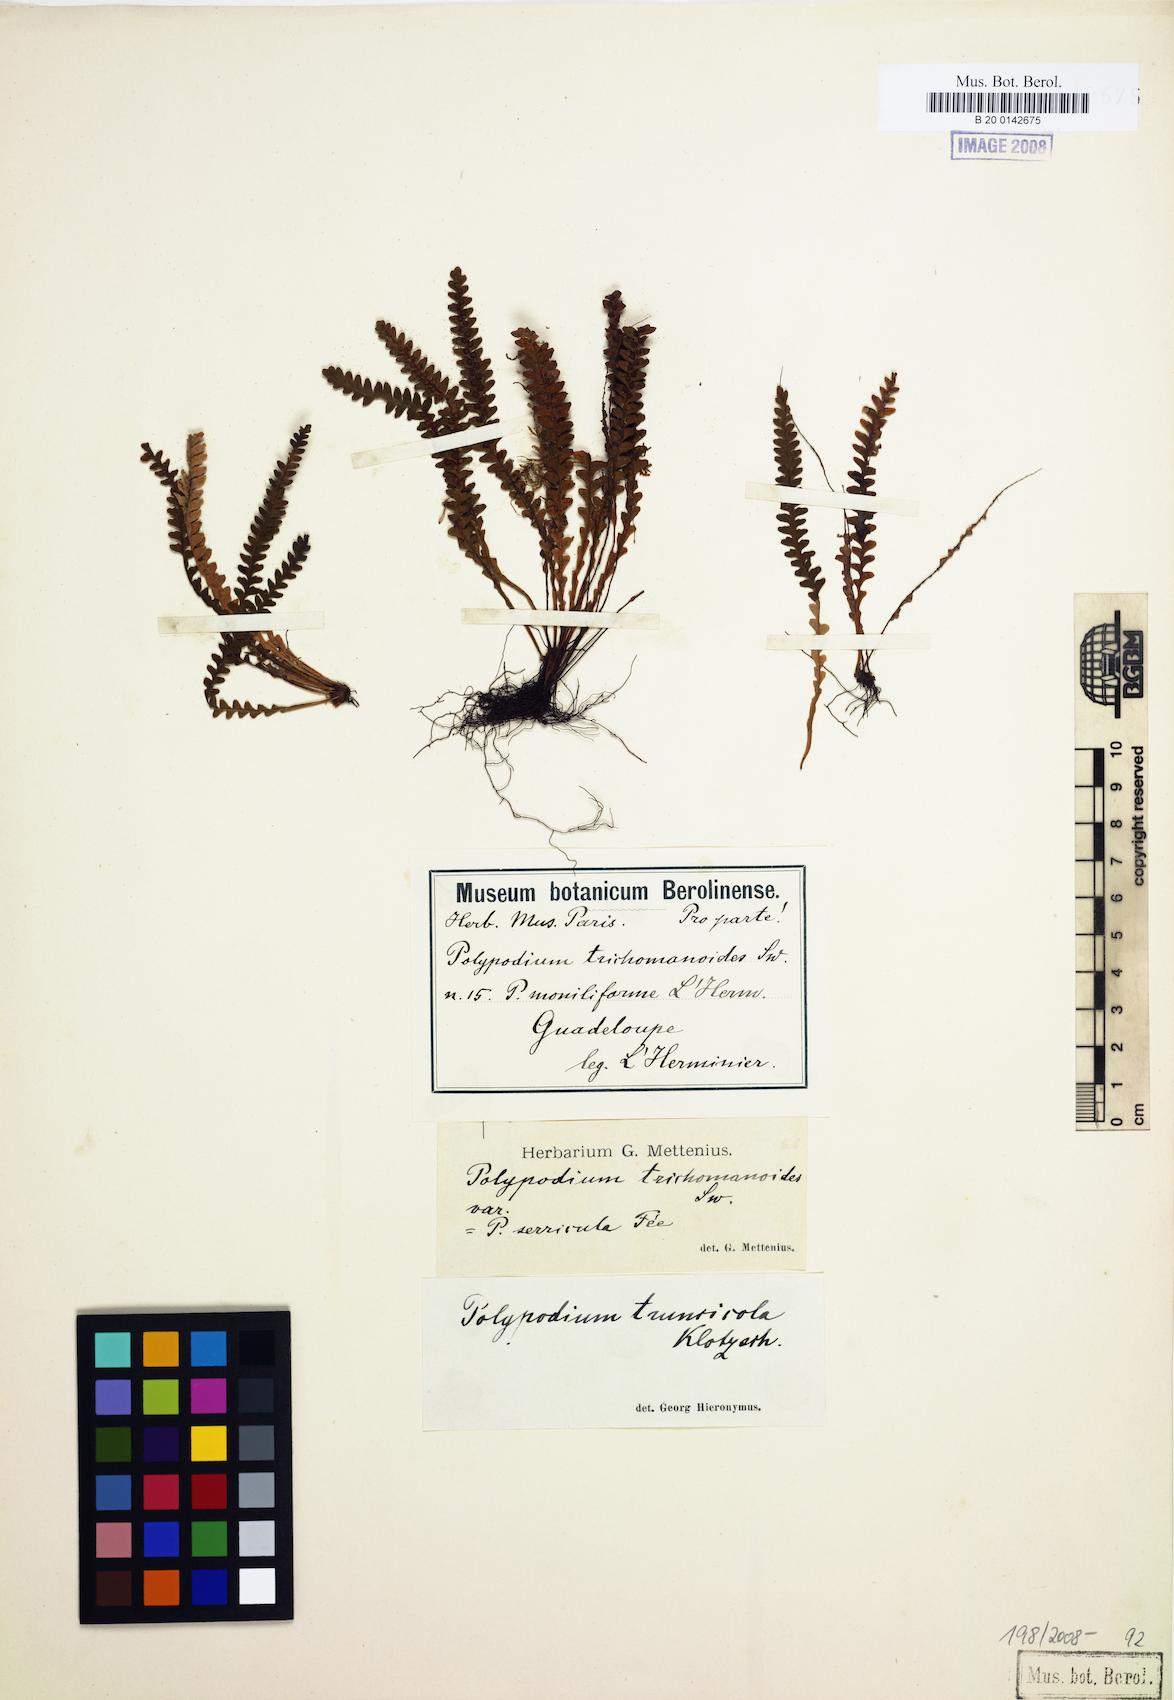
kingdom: Plantae
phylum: Tracheophyta
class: Polypodiopsida
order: Polypodiales
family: Polypodiaceae
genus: Moranopteris
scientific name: Moranopteris knowltoniorum
